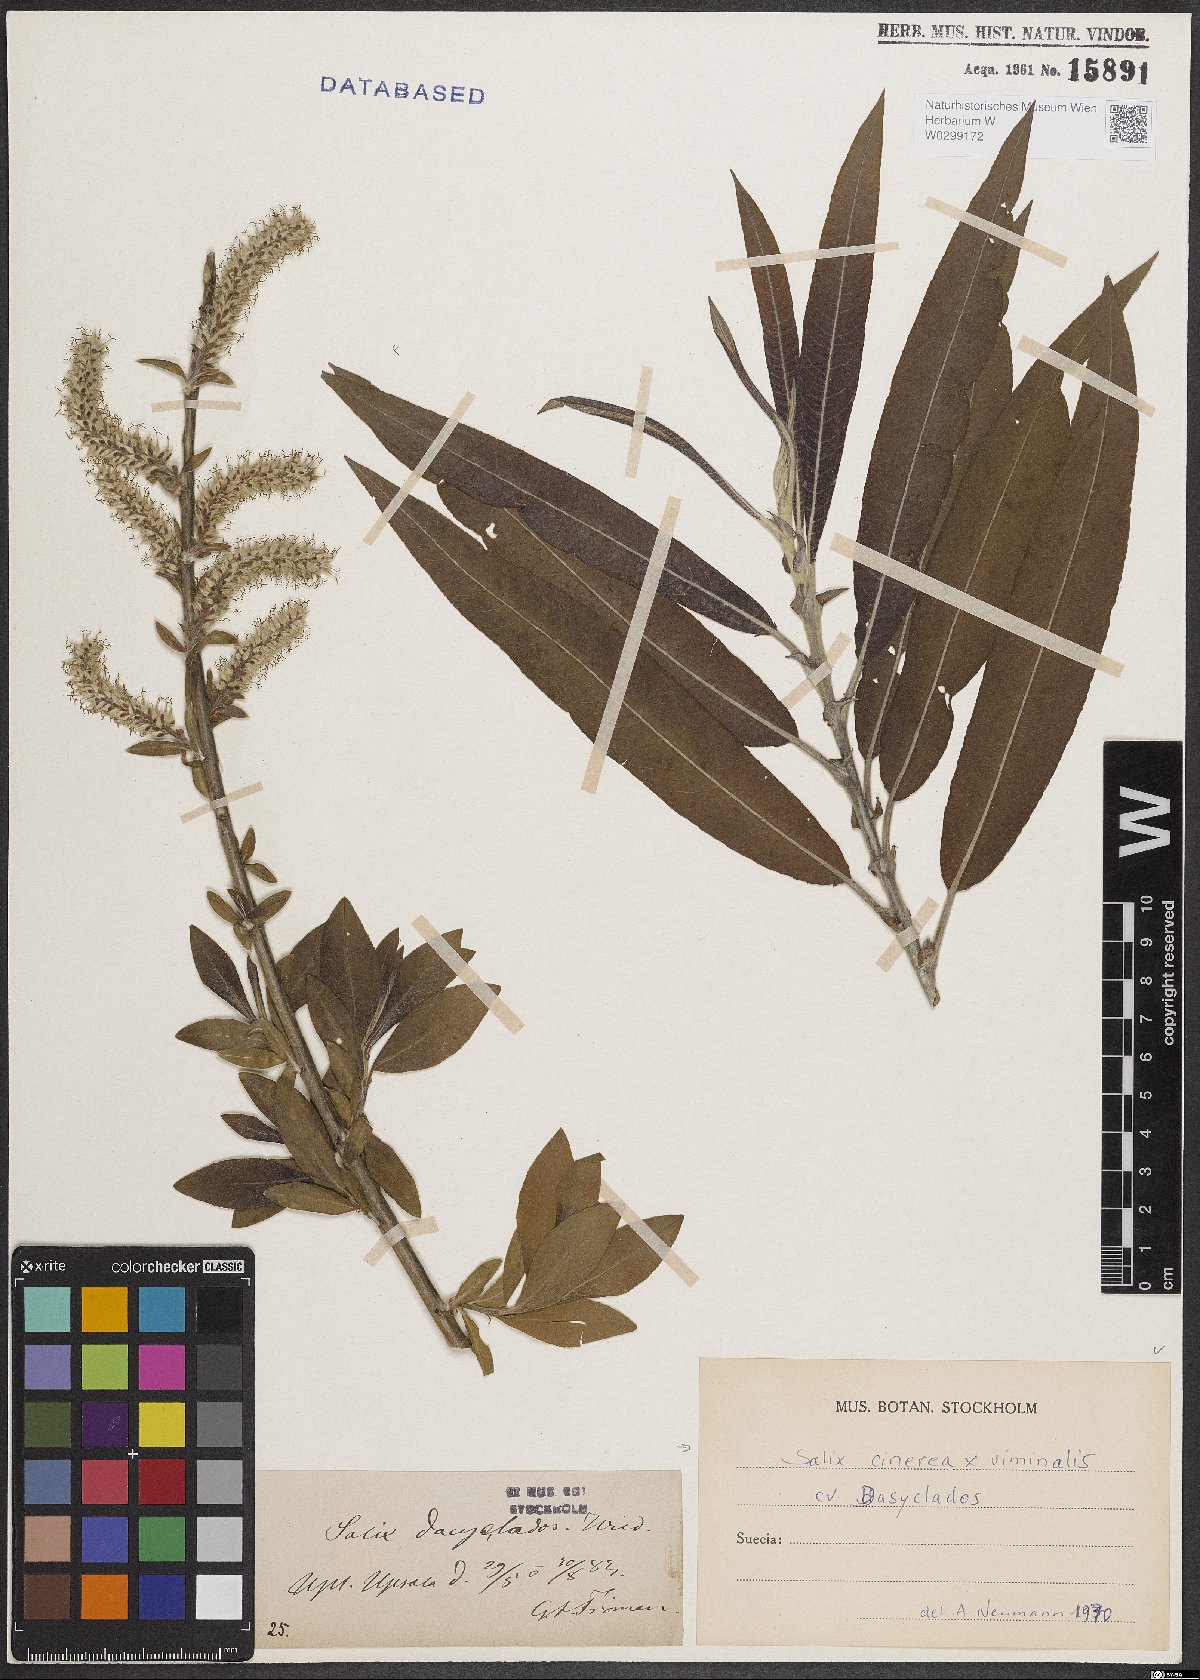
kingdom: Plantae
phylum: Tracheophyta
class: Magnoliopsida
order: Malpighiales
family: Salicaceae
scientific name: Salicaceae
